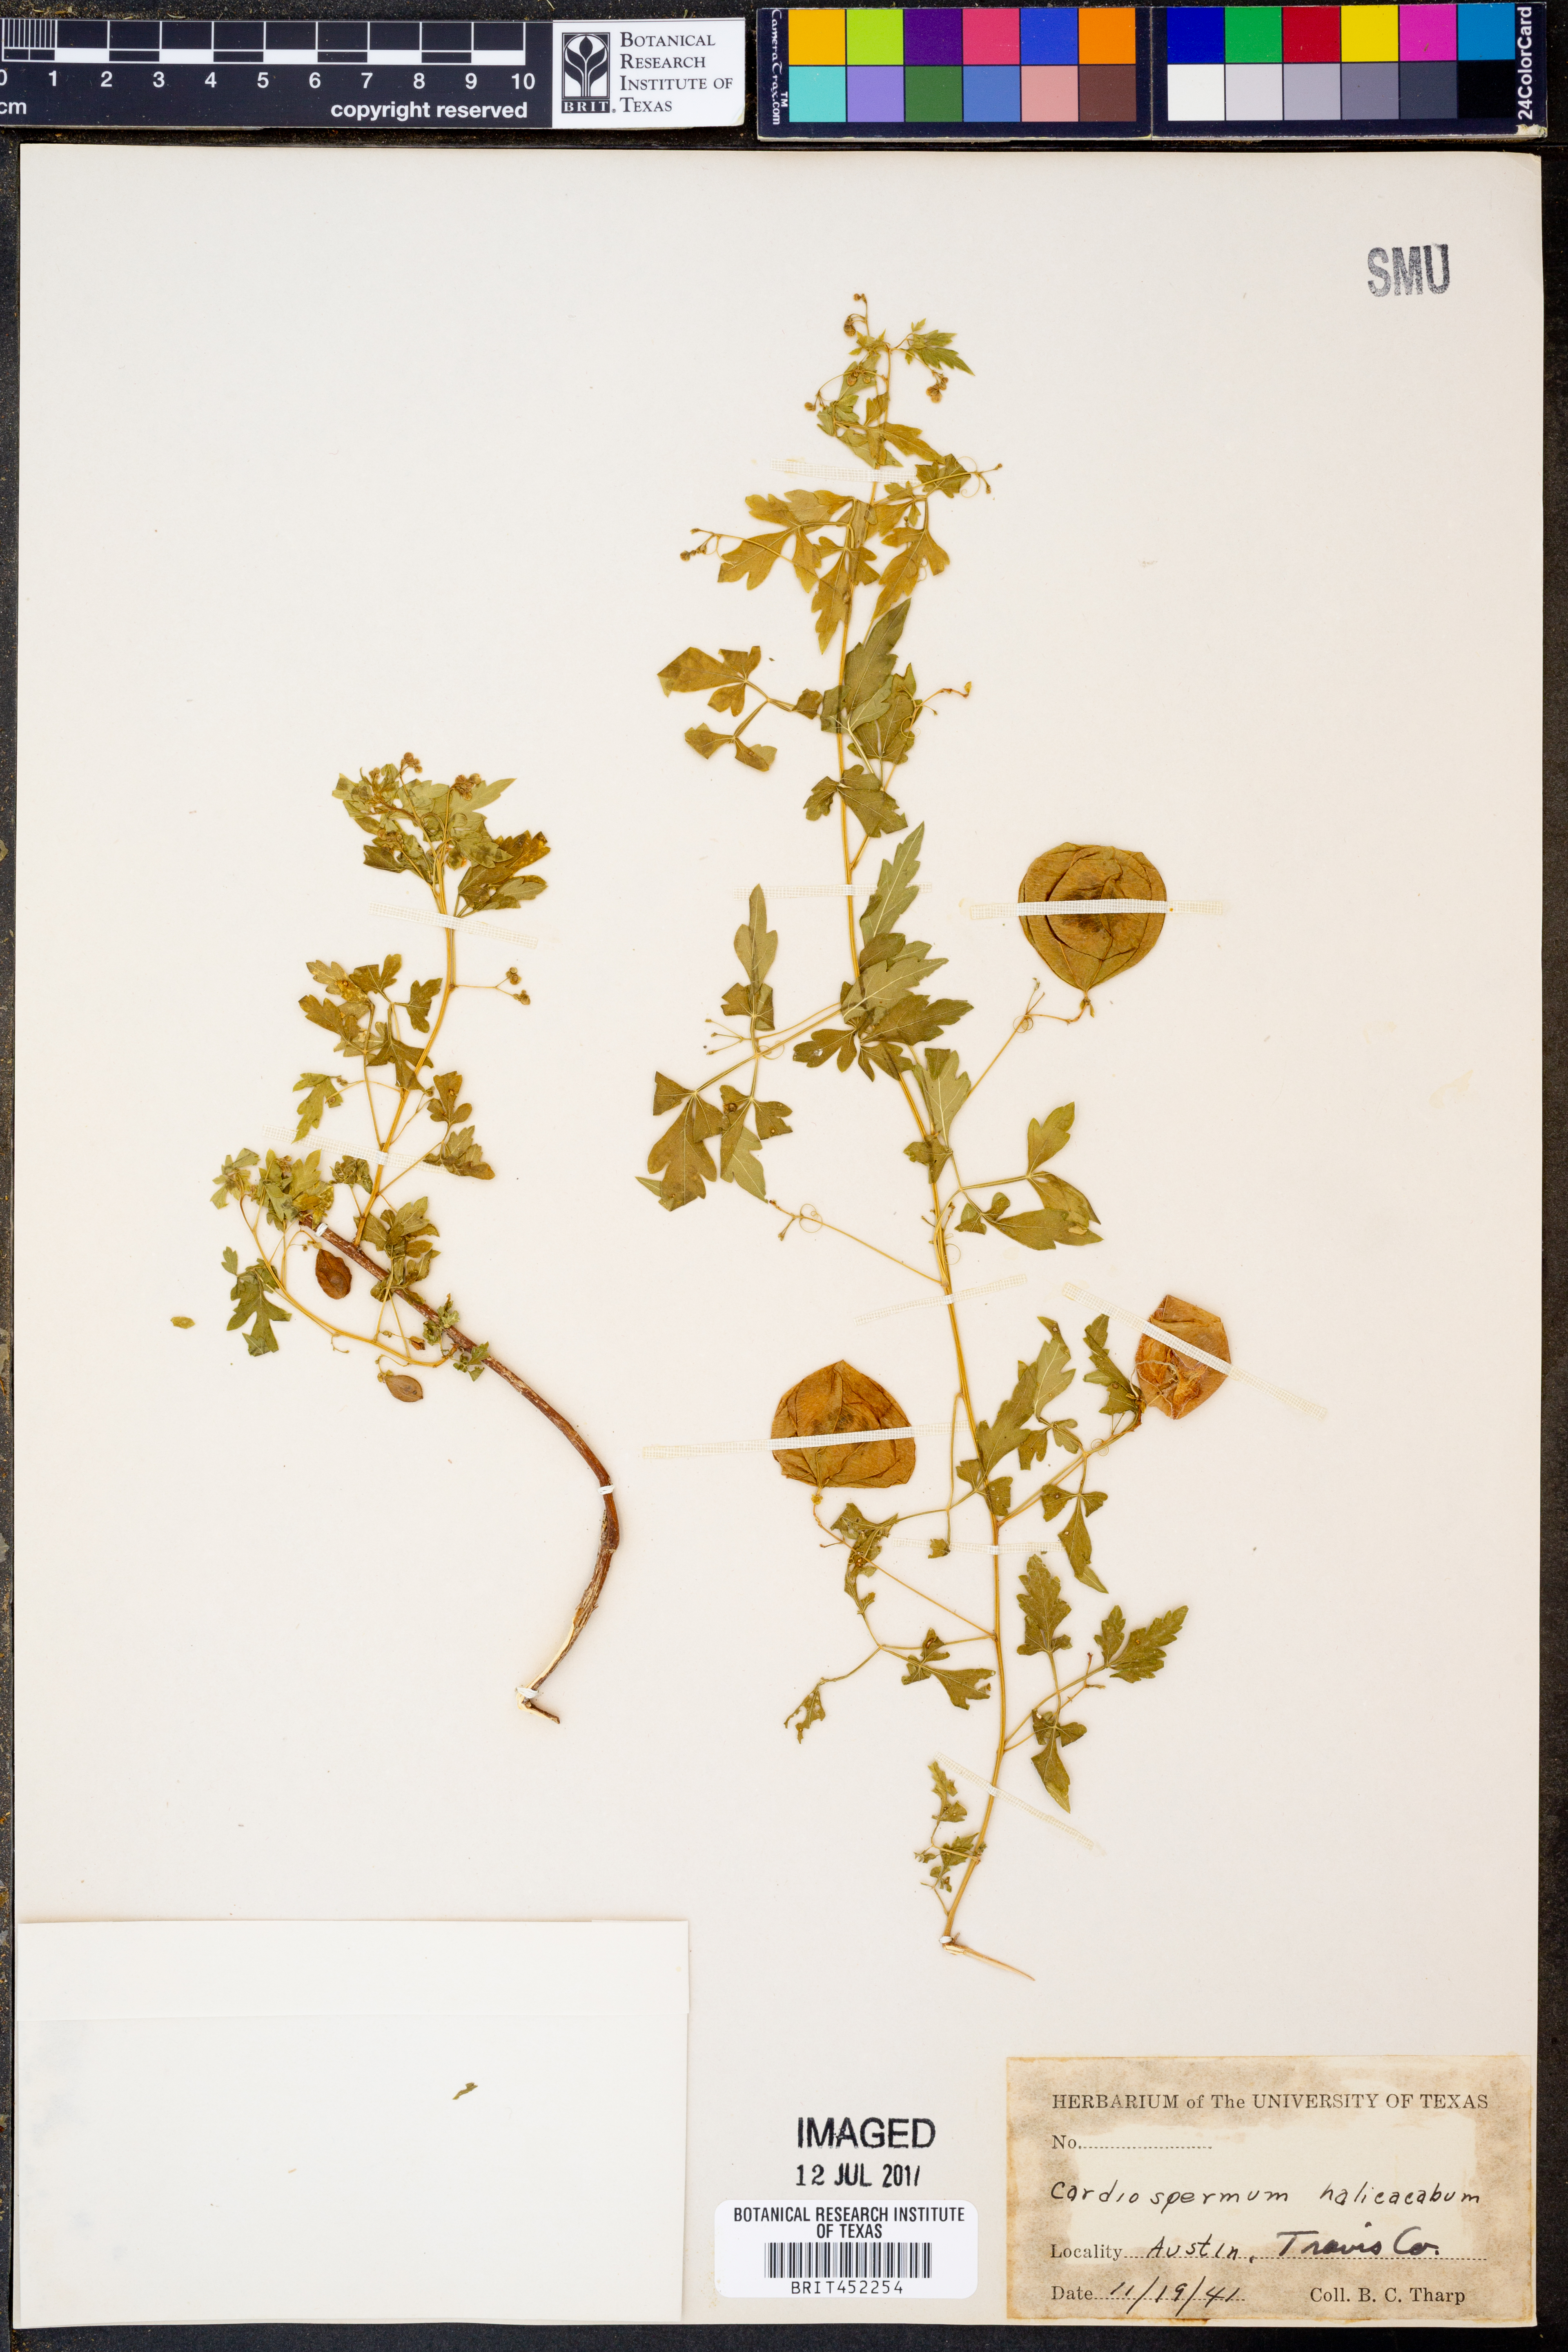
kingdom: Plantae
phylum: Tracheophyta
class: Magnoliopsida
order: Sapindales
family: Sapindaceae
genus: Cardiospermum
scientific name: Cardiospermum halicacabum
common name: Balloon vine
